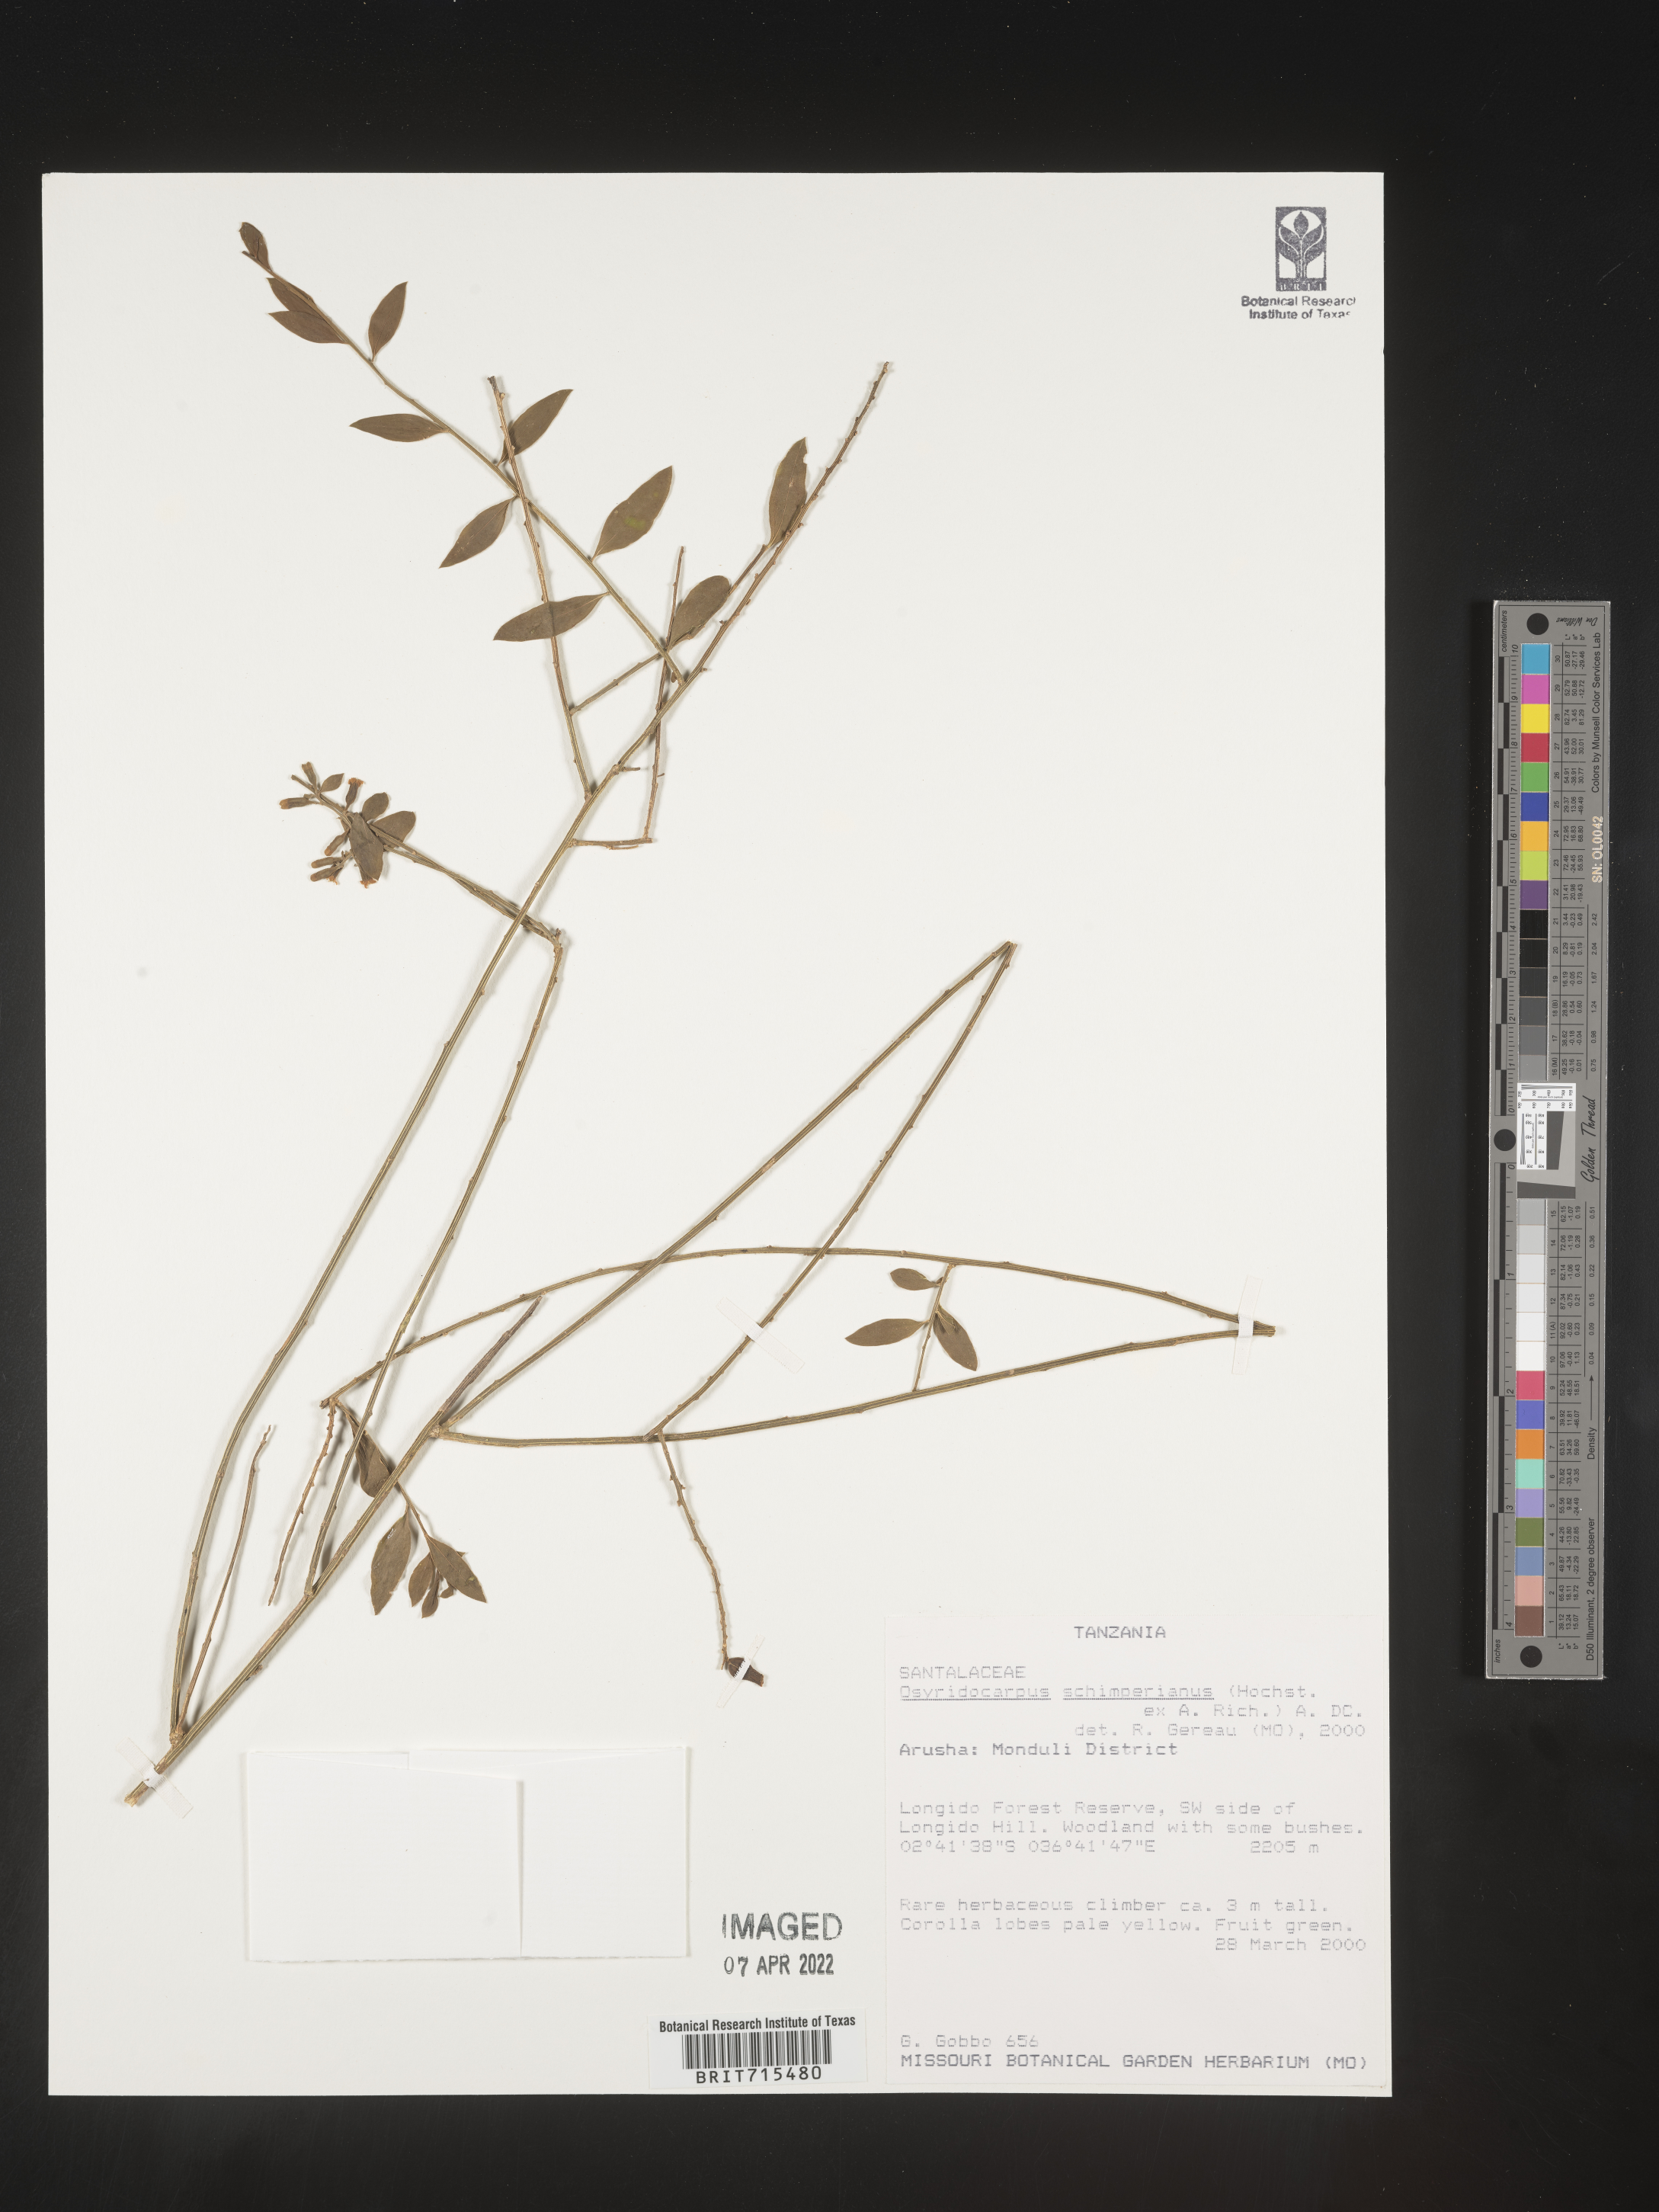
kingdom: Plantae
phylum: Tracheophyta
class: Magnoliopsida
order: Santalales
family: Thesiaceae
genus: Osyridicarpos
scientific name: Osyridicarpos
